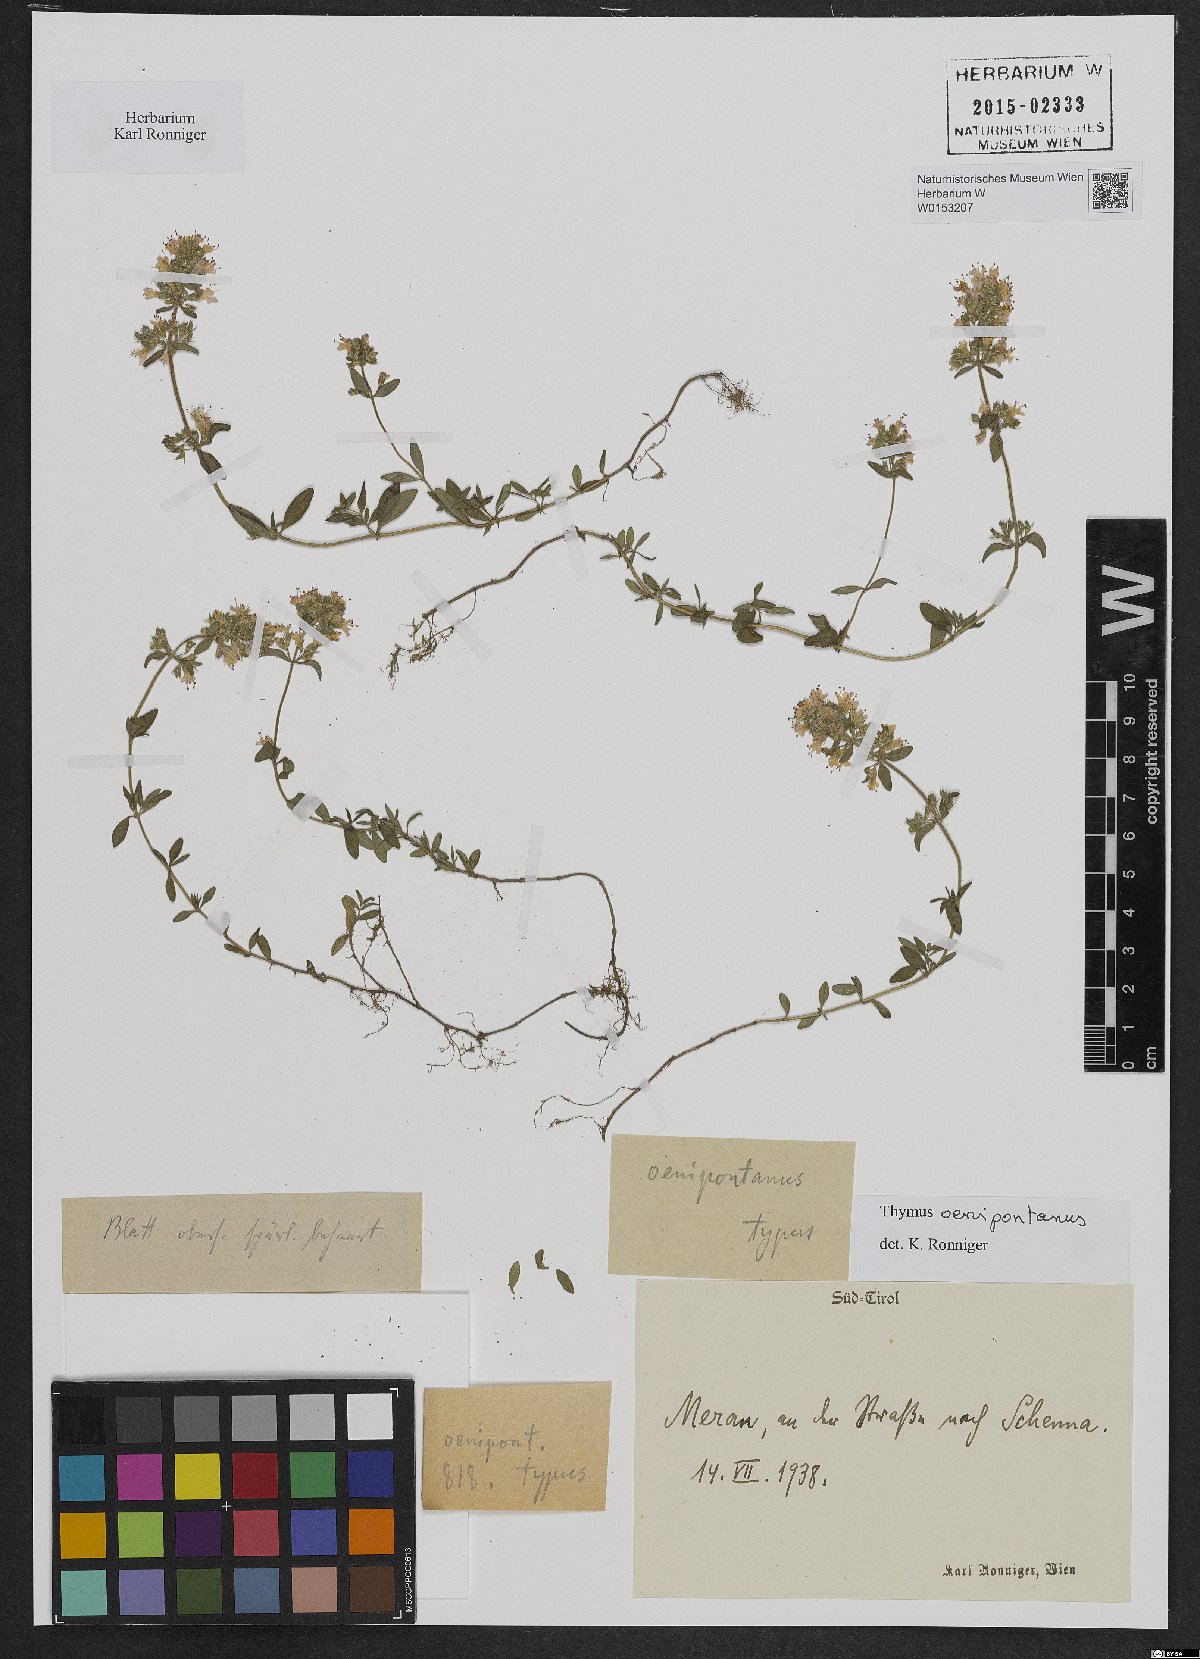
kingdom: Plantae
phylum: Tracheophyta
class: Magnoliopsida
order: Lamiales
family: Lamiaceae
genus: Thymus
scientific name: Thymus oenipontanus
